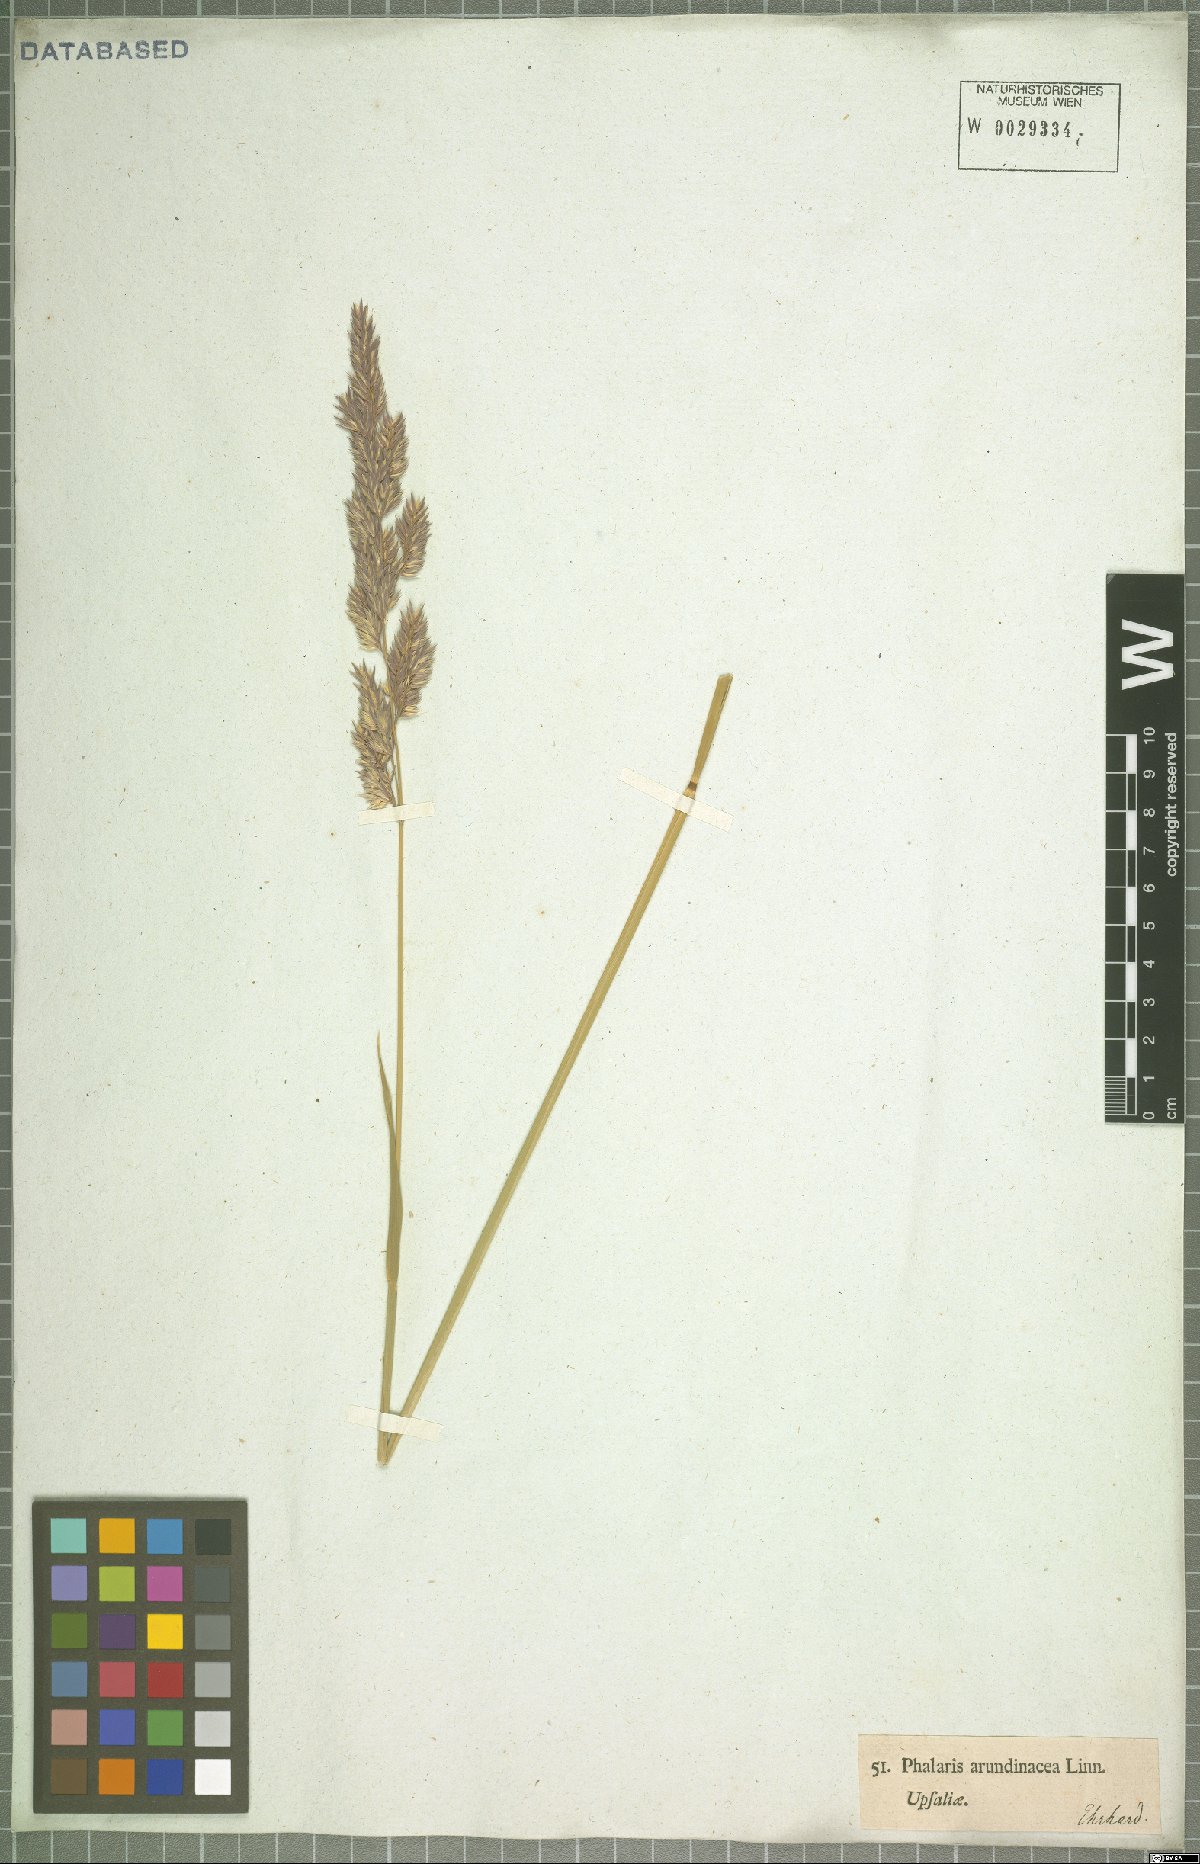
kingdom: Plantae
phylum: Tracheophyta
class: Liliopsida
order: Poales
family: Poaceae
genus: Phalaris
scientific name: Phalaris arundinacea
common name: Reed canary-grass
